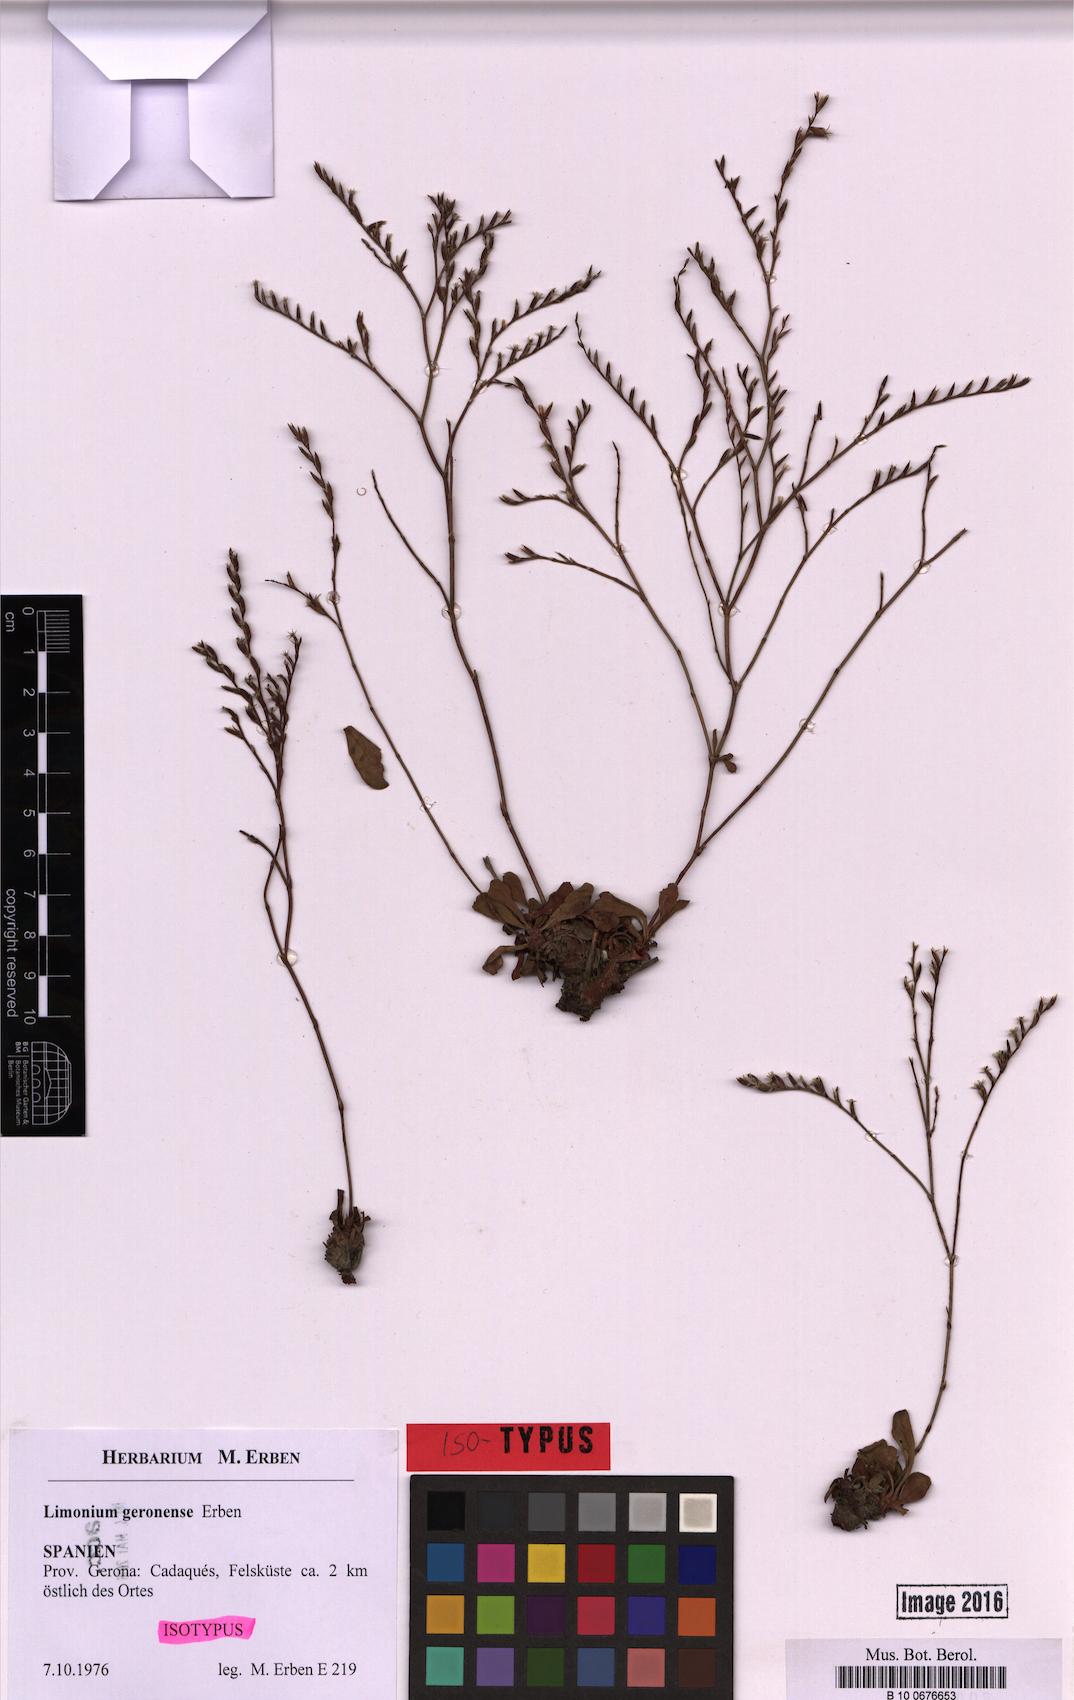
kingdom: Plantae
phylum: Tracheophyta
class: Magnoliopsida
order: Caryophyllales
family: Plumbaginaceae
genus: Limonium
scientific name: Limonium geronense
